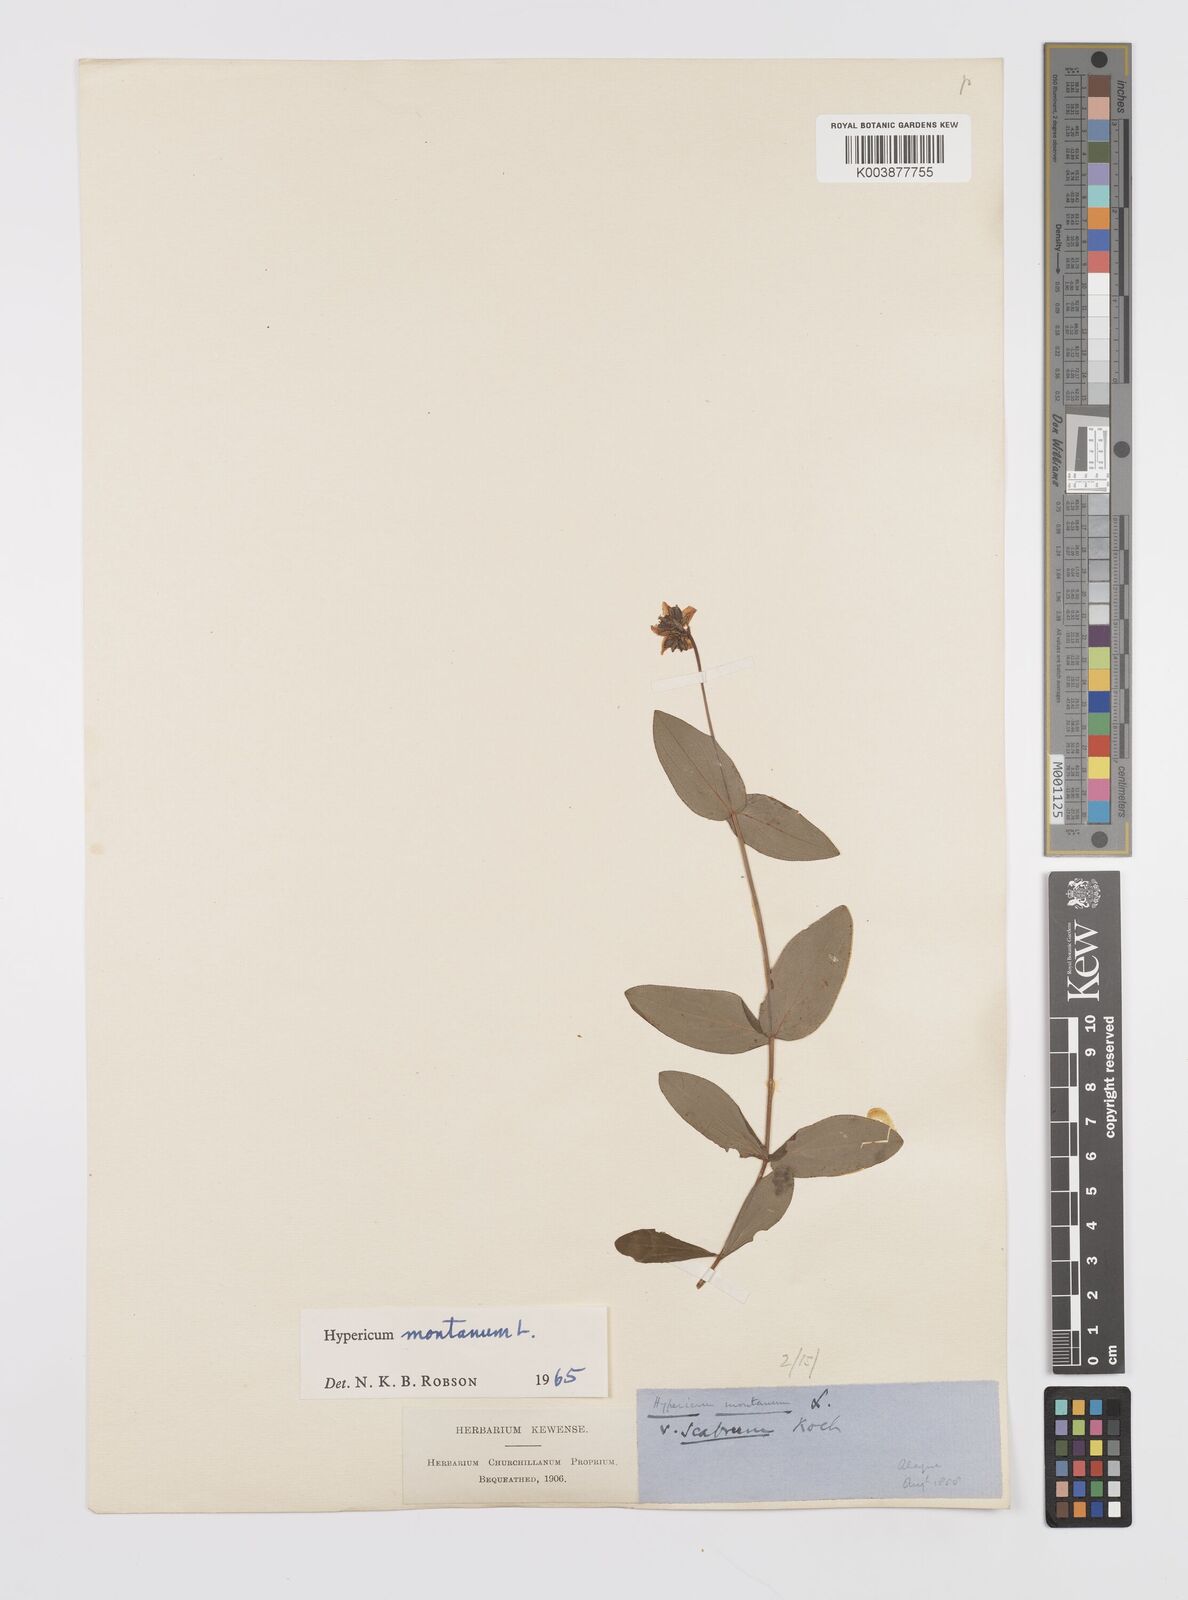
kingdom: Plantae
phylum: Tracheophyta
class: Magnoliopsida
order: Malpighiales
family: Hypericaceae
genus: Hypericum
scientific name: Hypericum montanum
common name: Pale st. john's-wort
